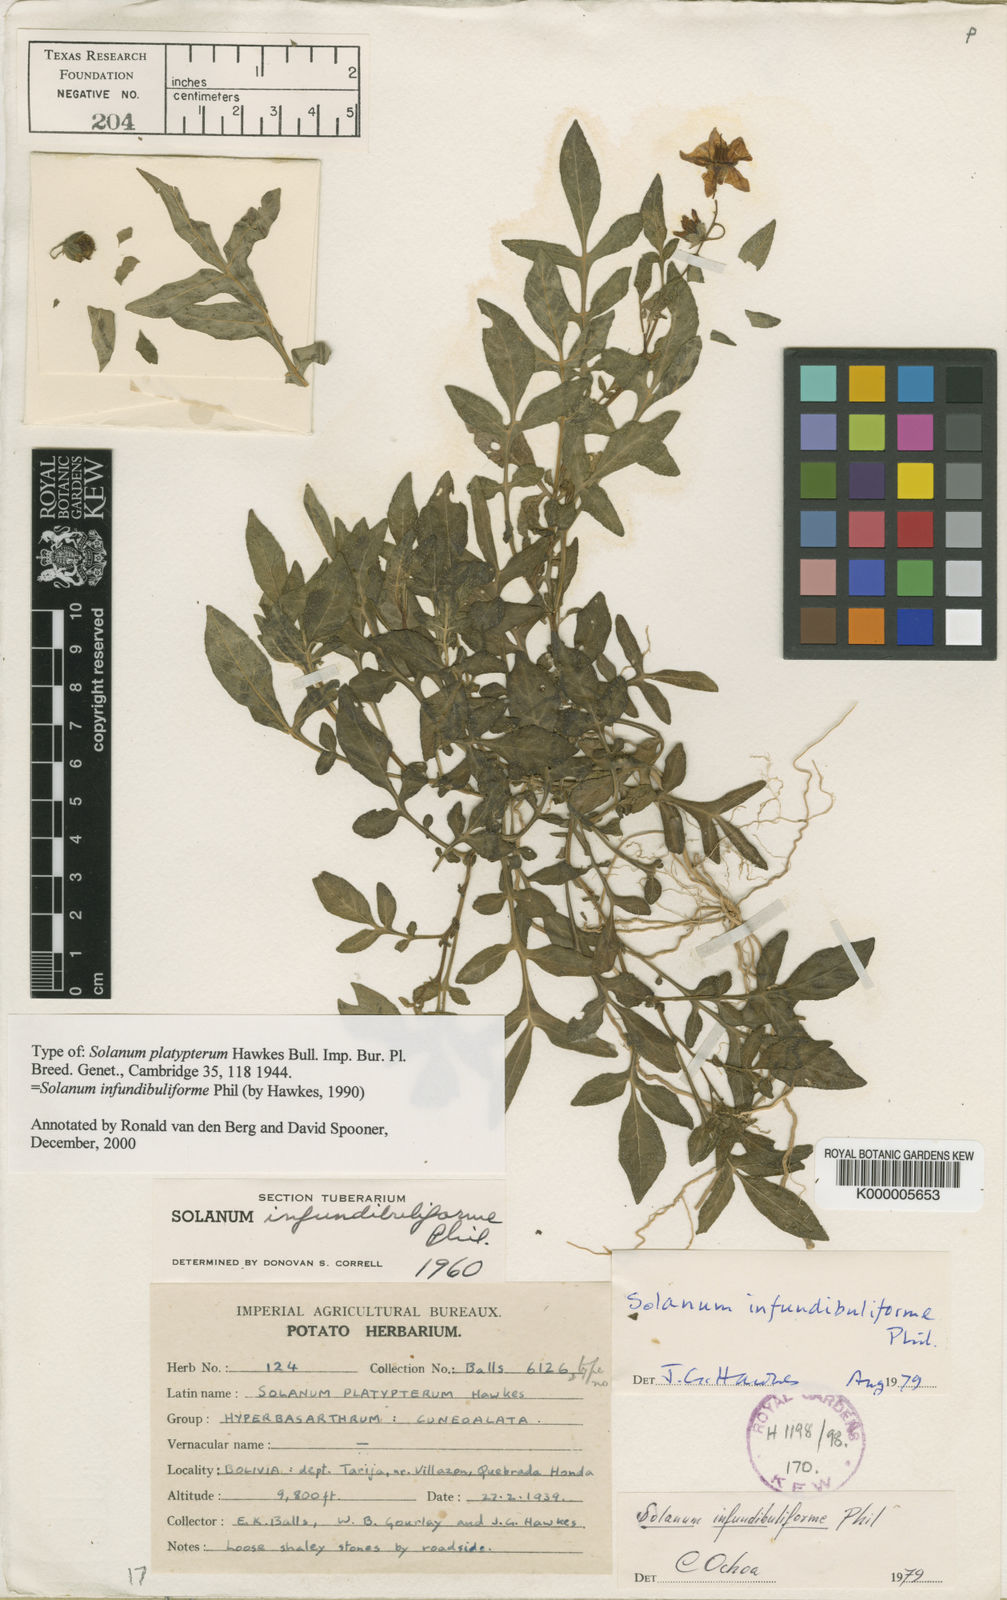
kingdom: Plantae
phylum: Tracheophyta
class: Magnoliopsida
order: Solanales
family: Solanaceae
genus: Solanum
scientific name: Solanum infundibuliforme
